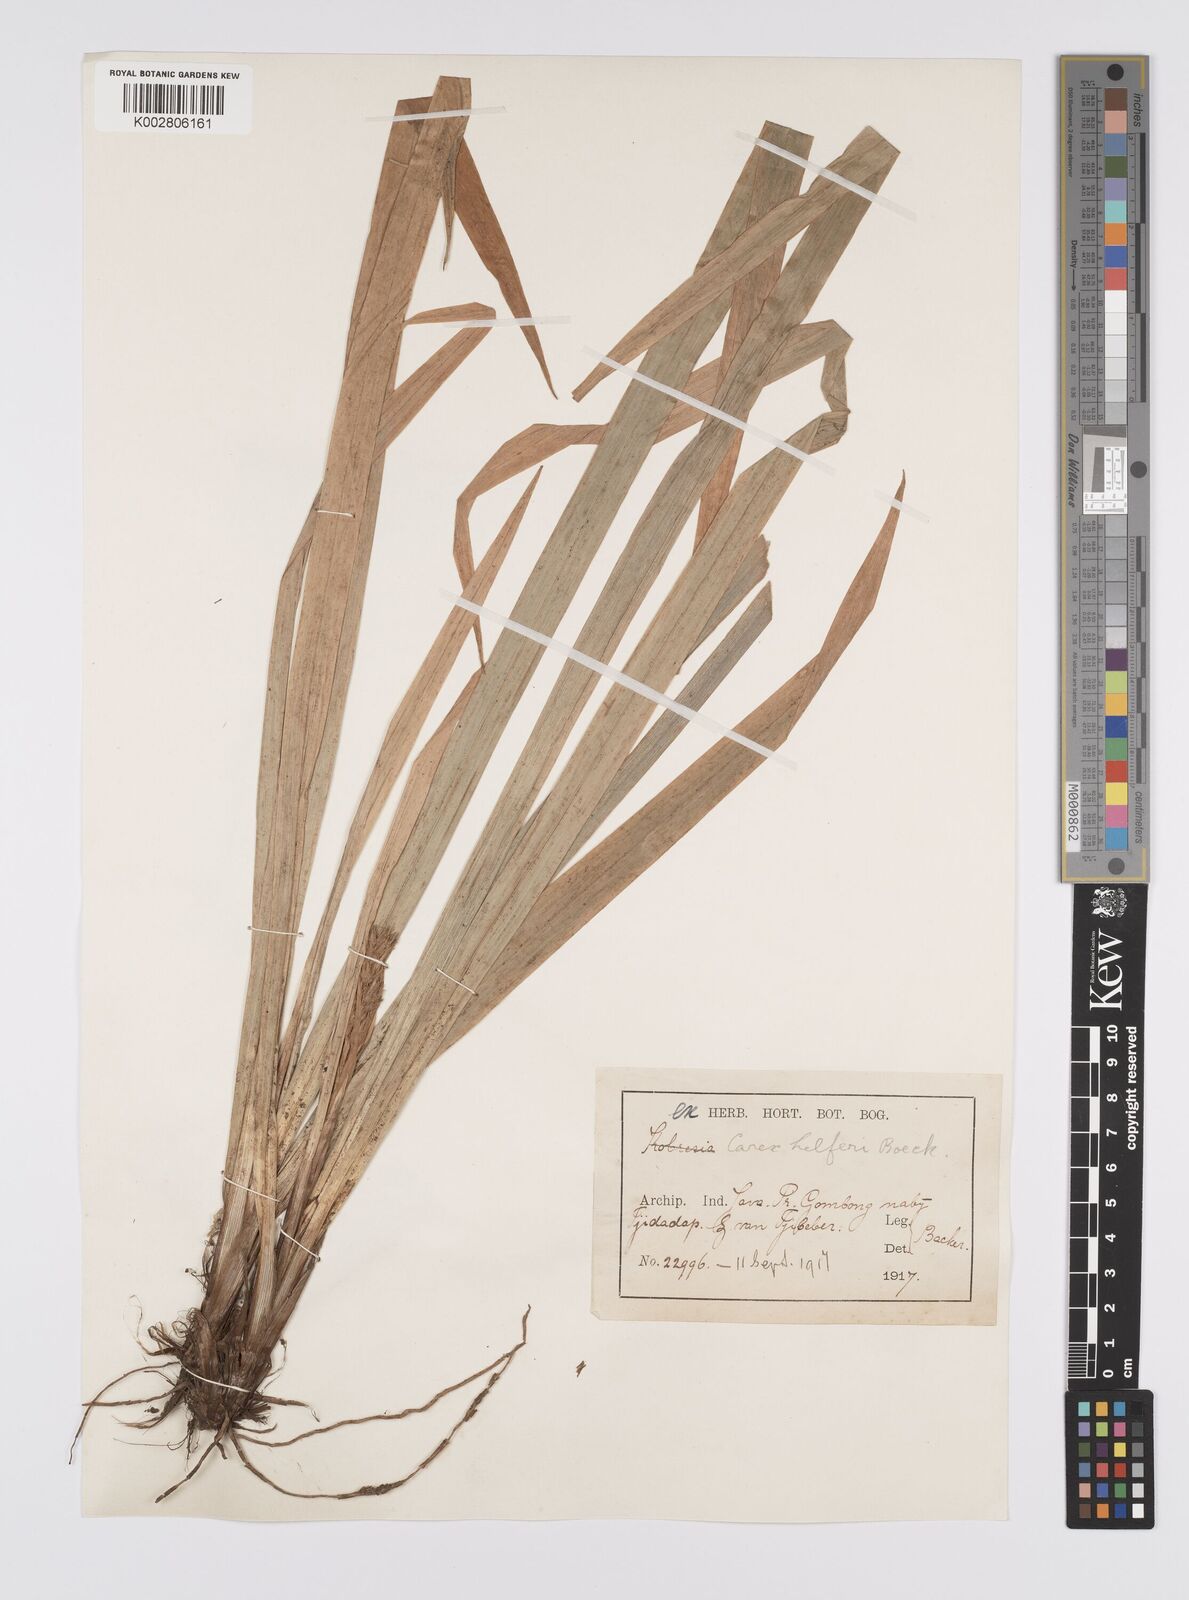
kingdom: Plantae
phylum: Tracheophyta
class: Liliopsida
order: Poales
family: Cyperaceae
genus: Carex
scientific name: Carex helferi
